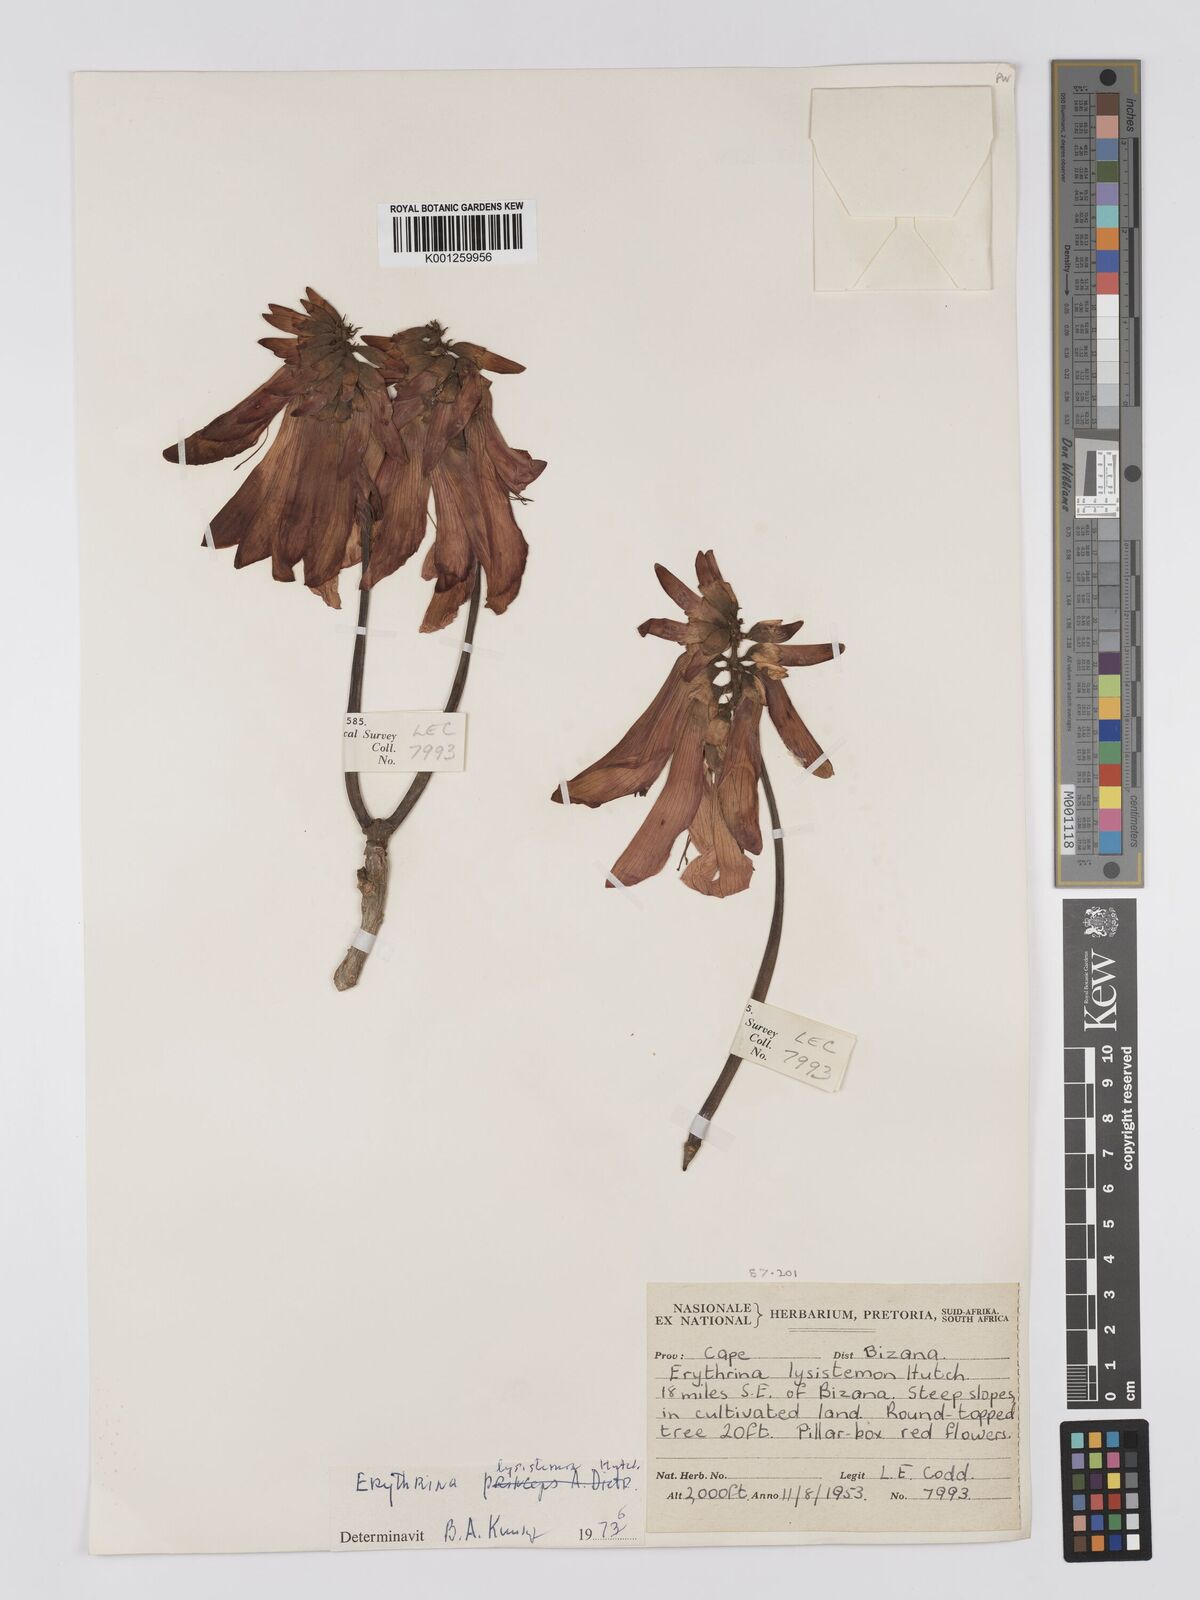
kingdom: Plantae
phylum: Tracheophyta
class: Magnoliopsida
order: Fabales
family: Fabaceae
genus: Erythrina
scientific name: Erythrina lysistemon
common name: Common coral tree
